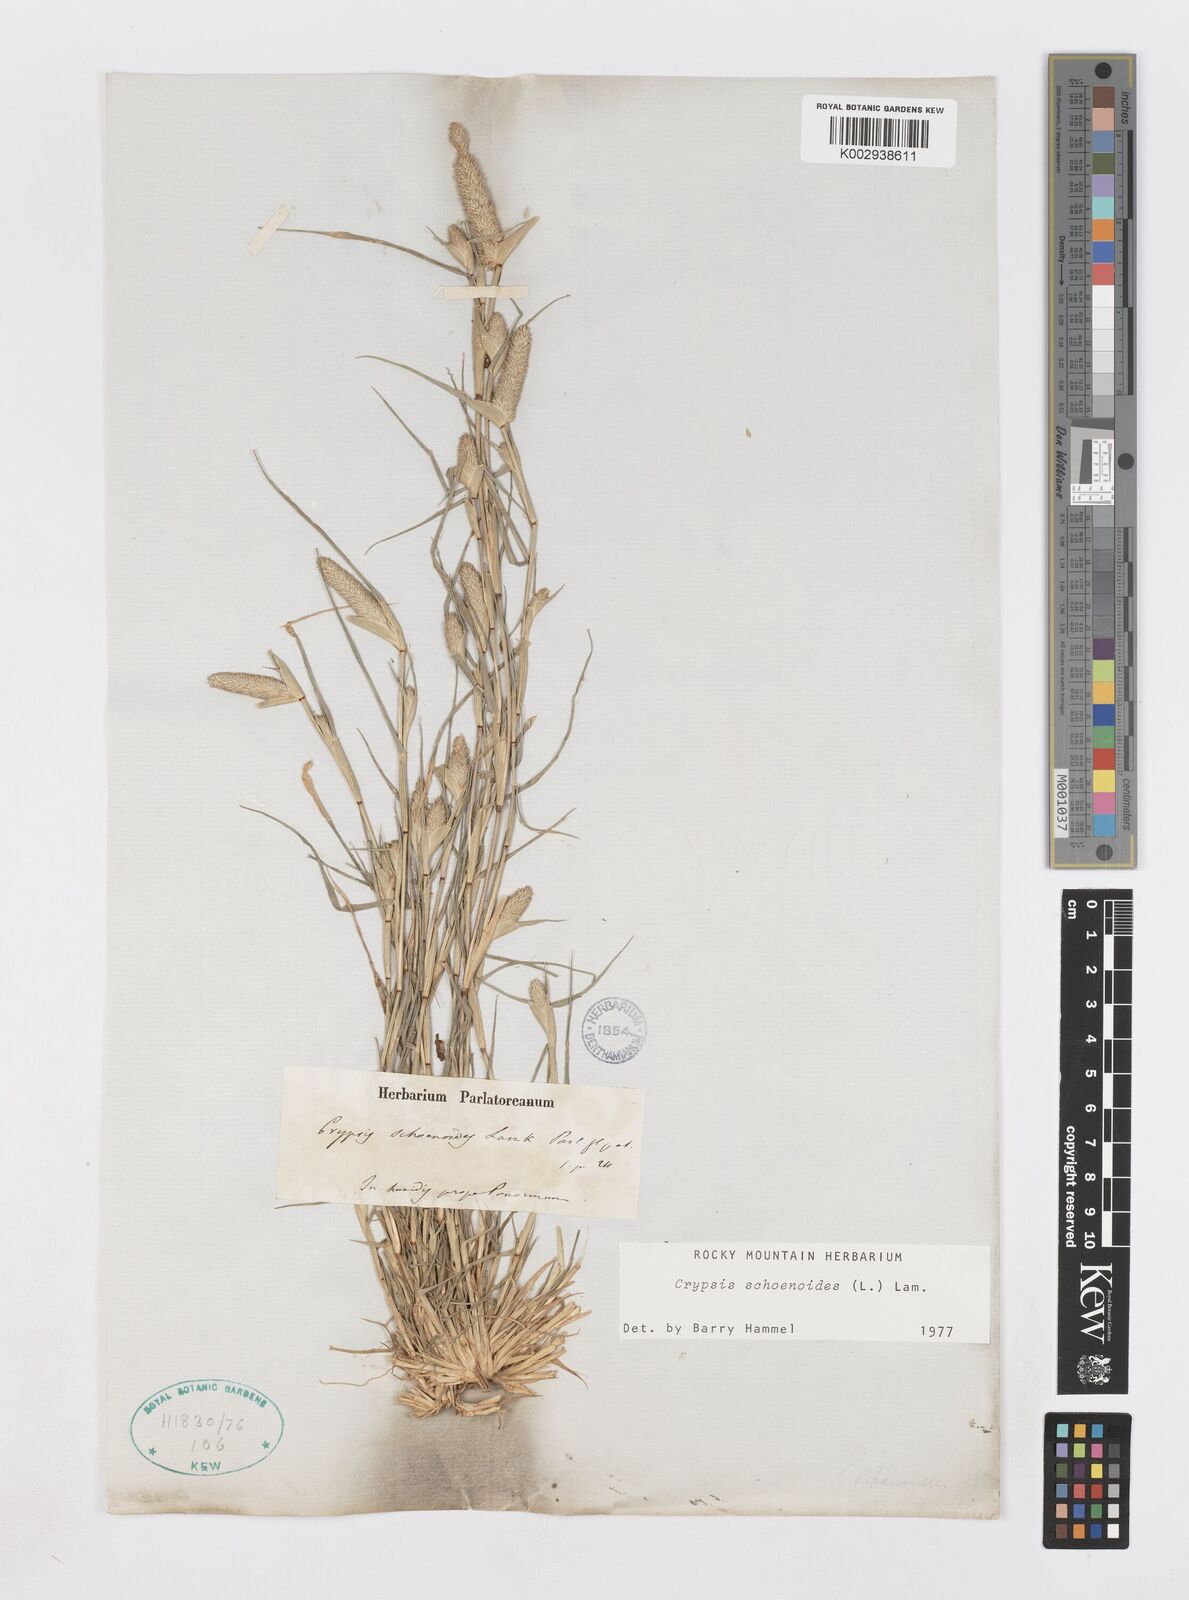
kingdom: Plantae
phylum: Tracheophyta
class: Liliopsida
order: Poales
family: Poaceae
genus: Sporobolus
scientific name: Sporobolus schoenoides
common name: Rush-like timothy
